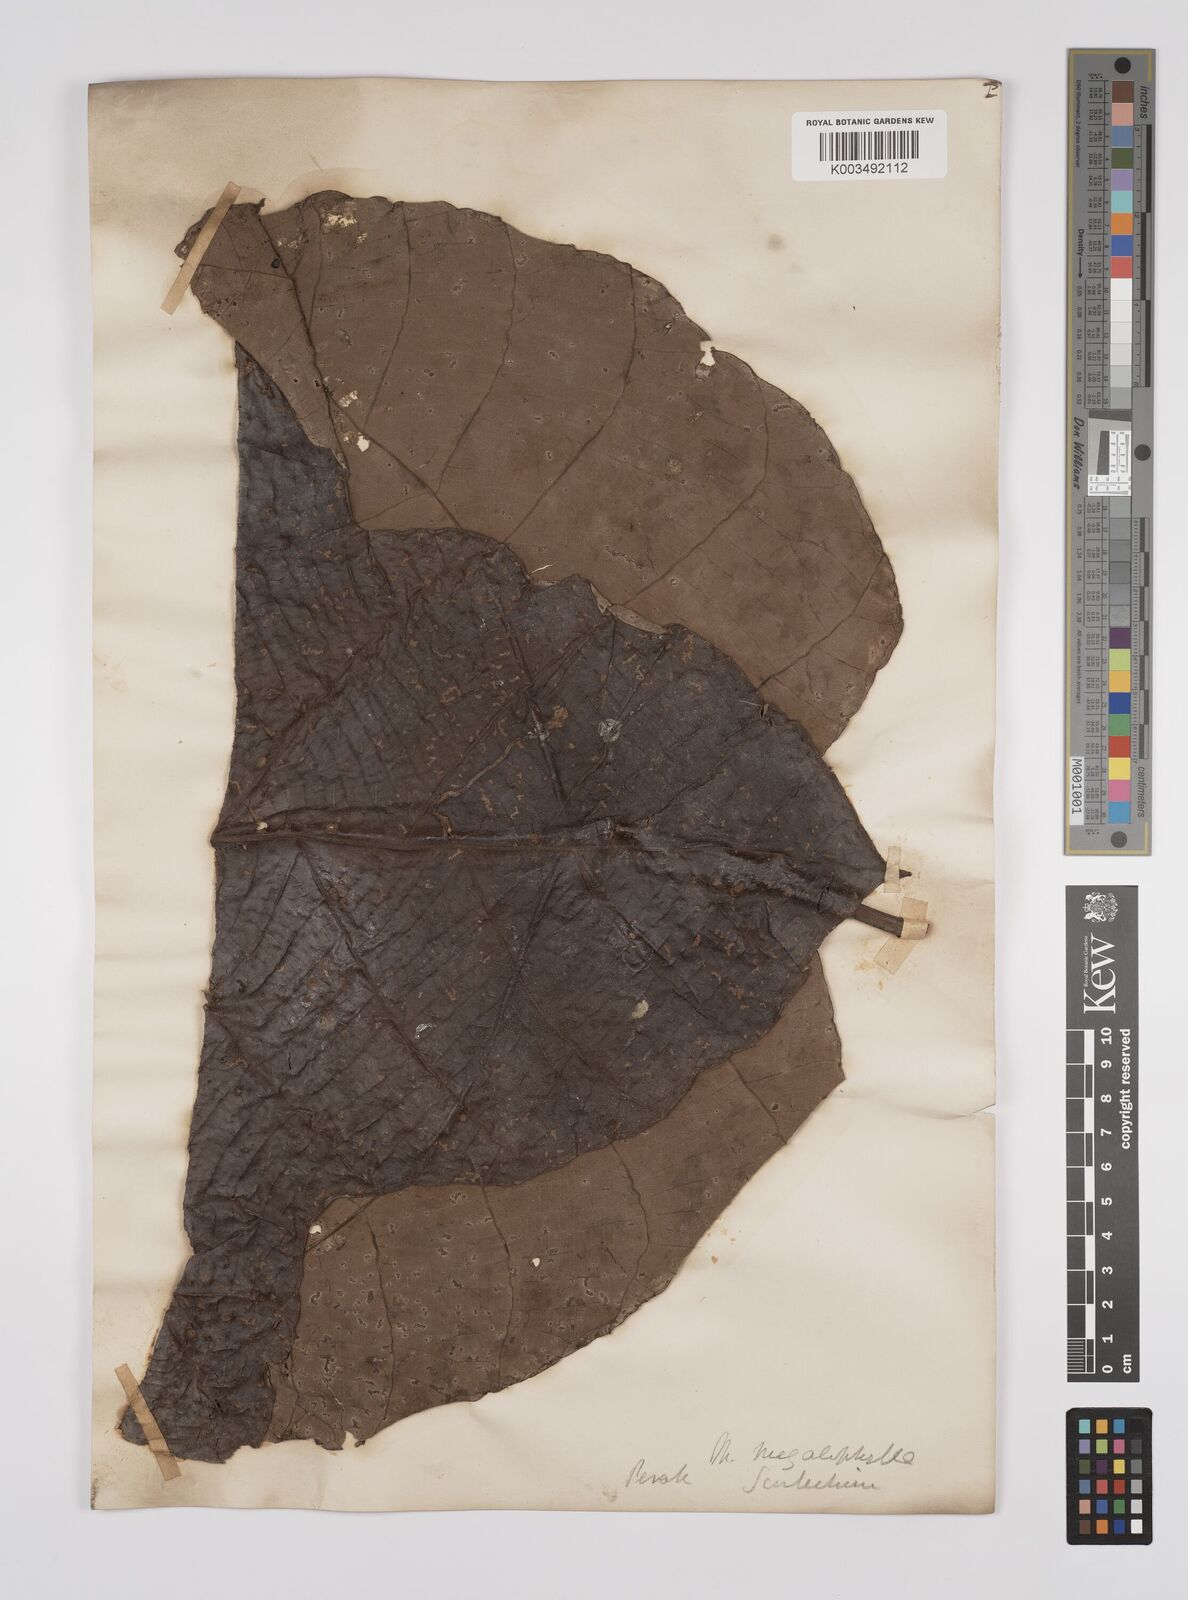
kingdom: Plantae
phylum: Tracheophyta
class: Magnoliopsida
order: Malpighiales
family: Euphorbiaceae
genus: Macaranga
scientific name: Macaranga gigantea
